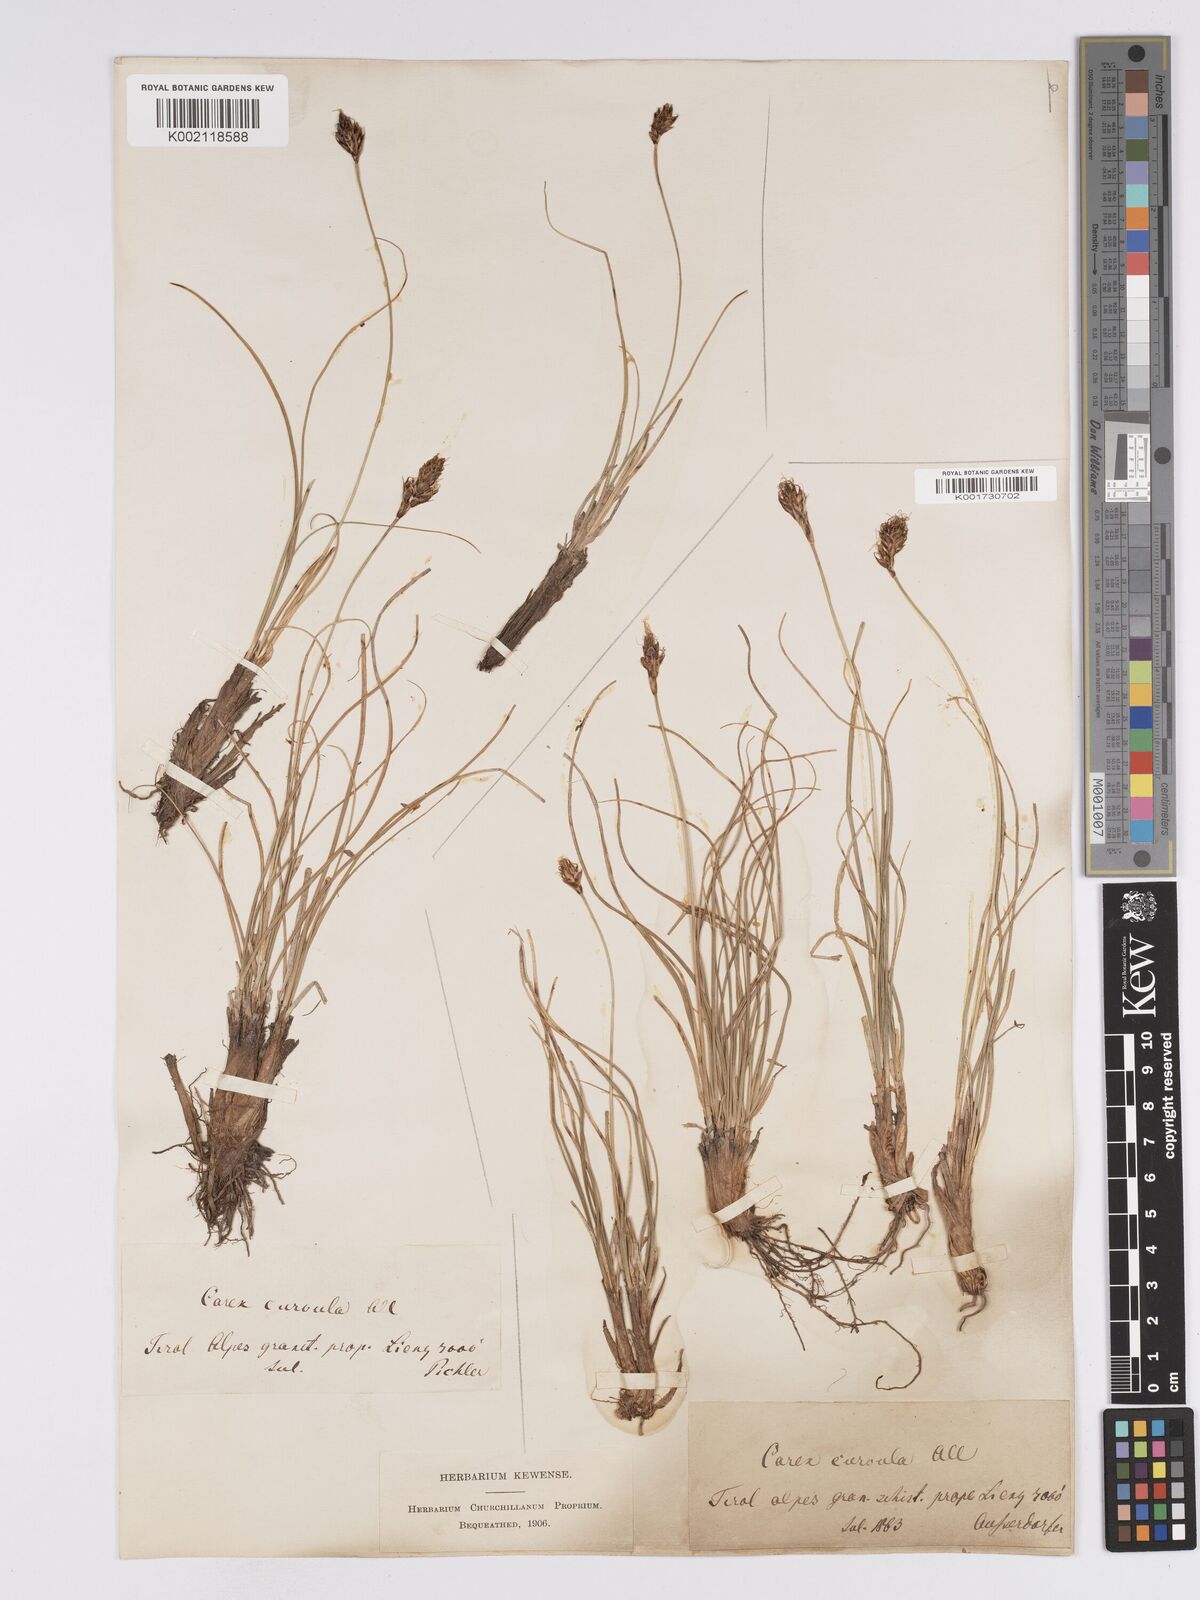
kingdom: Plantae
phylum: Tracheophyta
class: Liliopsida
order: Poales
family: Cyperaceae
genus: Carex
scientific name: Carex curvula
